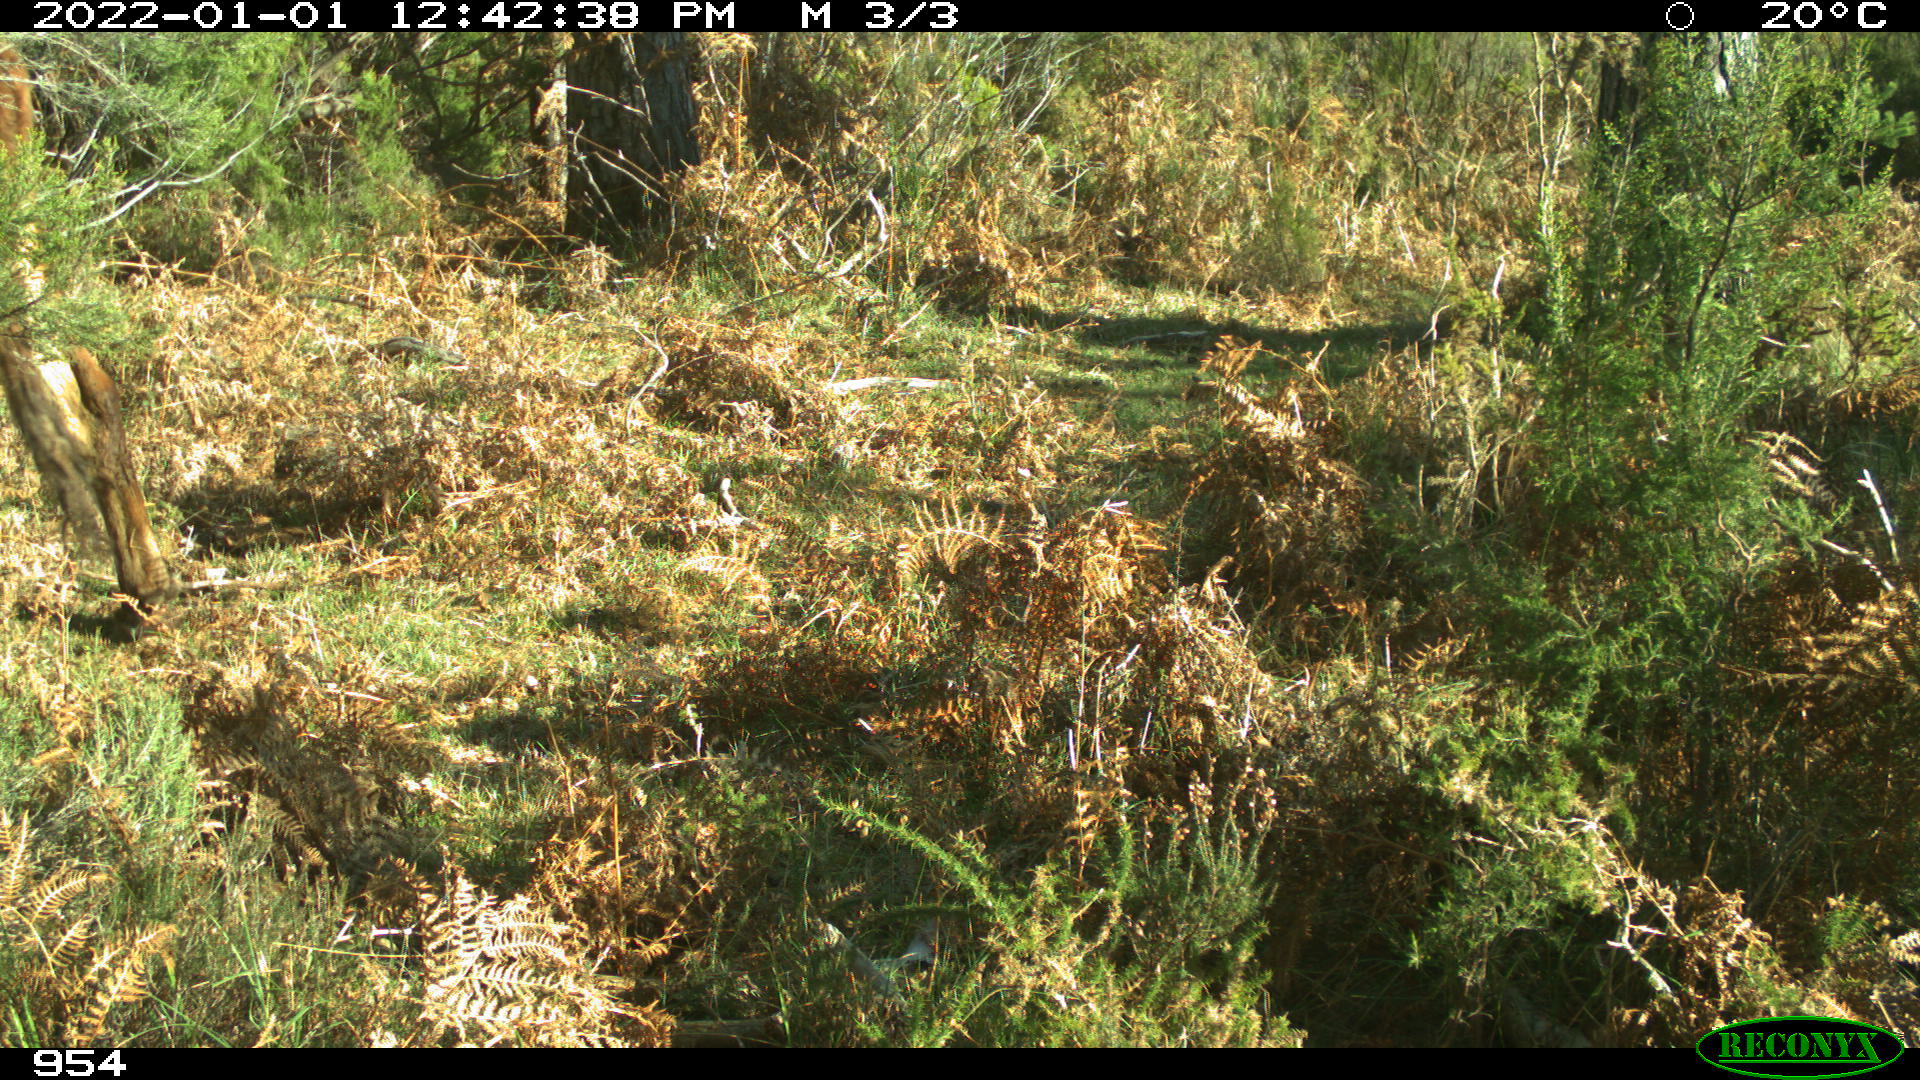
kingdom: Animalia
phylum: Chordata
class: Mammalia
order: Artiodactyla
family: Bovidae
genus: Bos
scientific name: Bos taurus
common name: Domesticated cattle
